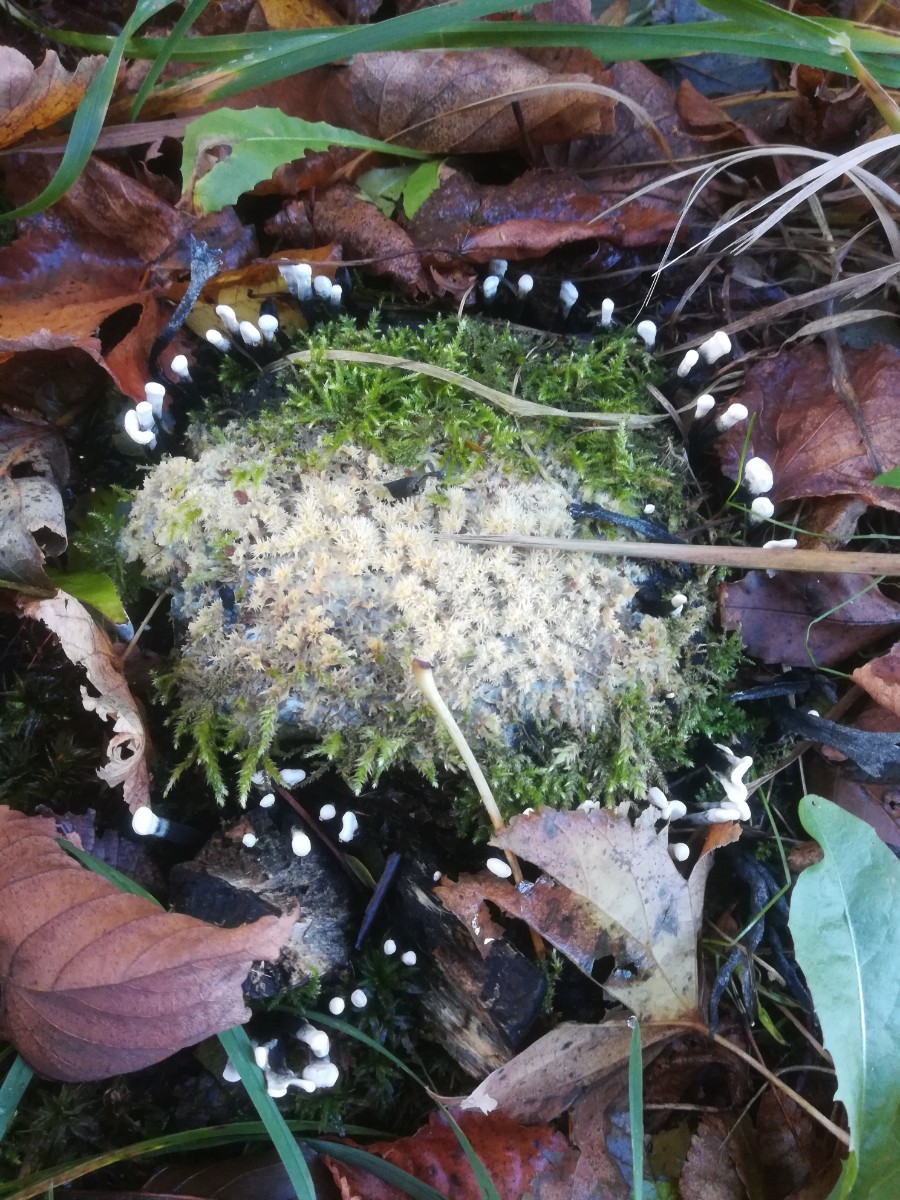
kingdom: Fungi
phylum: Ascomycota
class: Sordariomycetes
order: Xylariales
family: Xylariaceae
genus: Xylaria
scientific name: Xylaria hypoxylon
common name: grenet stødsvamp
